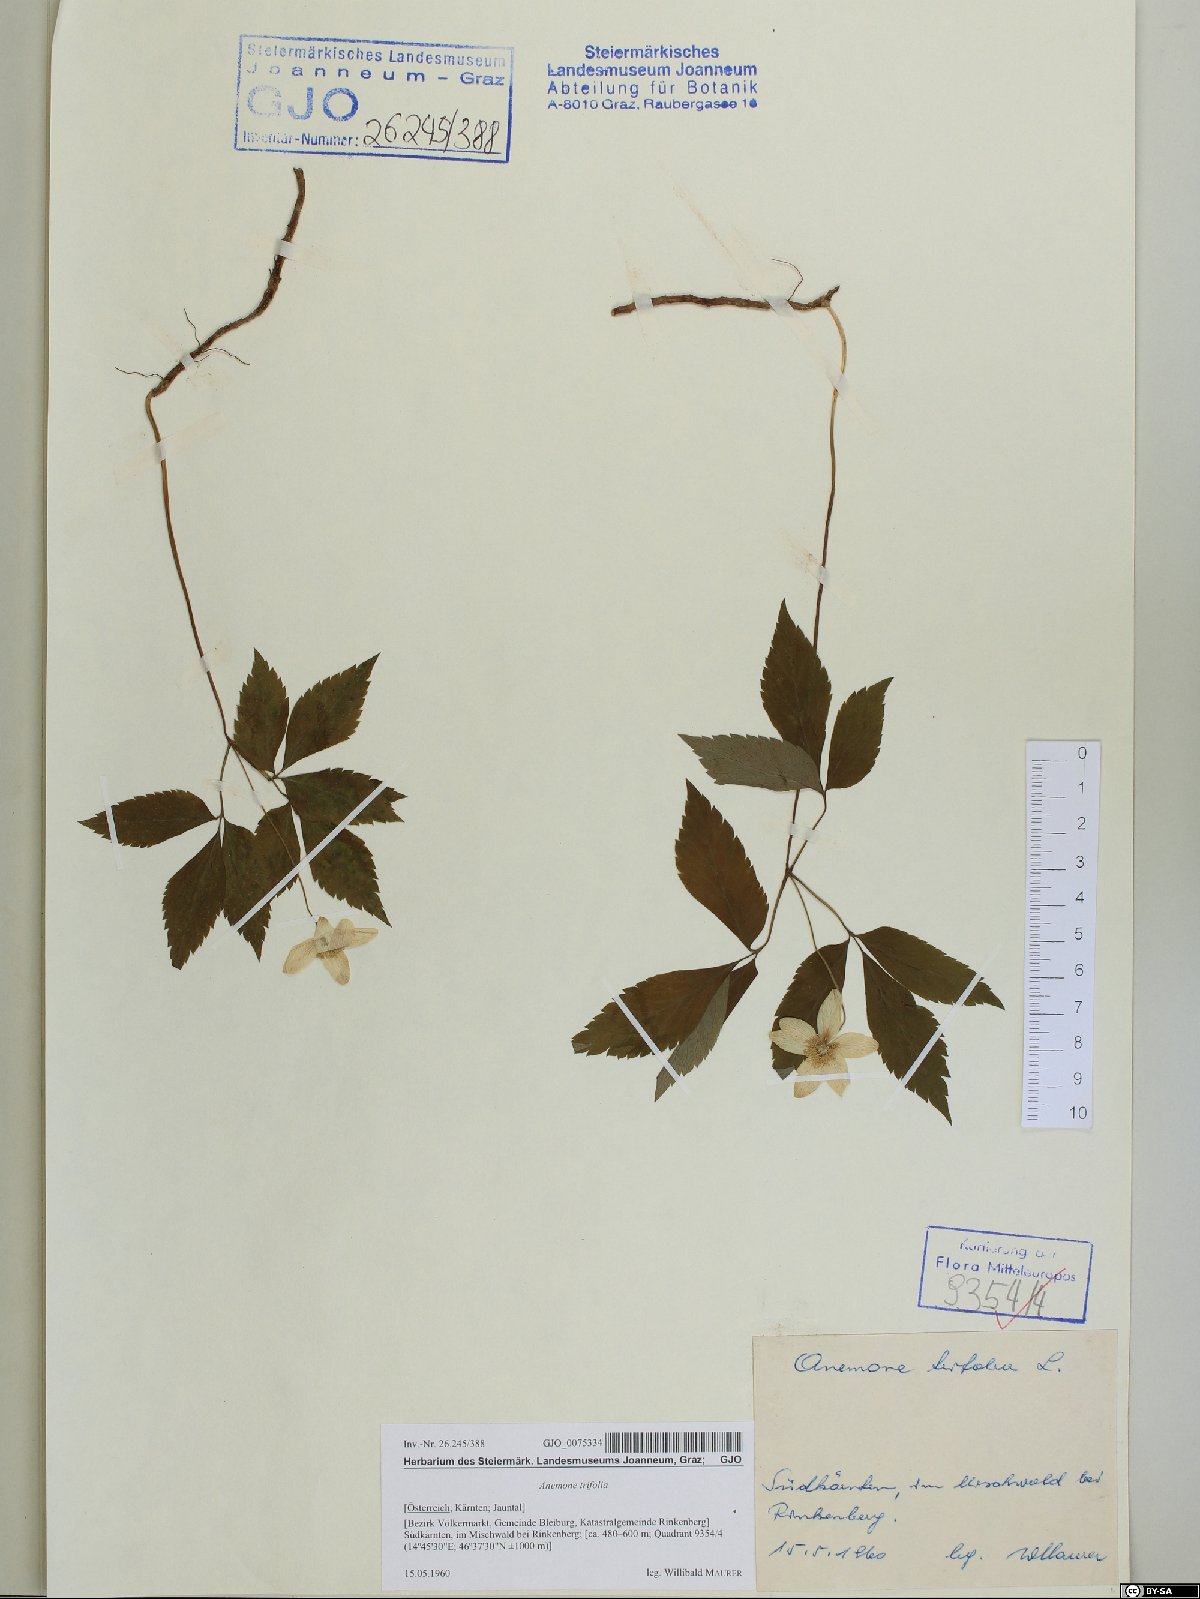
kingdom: Plantae
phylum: Tracheophyta
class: Magnoliopsida
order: Ranunculales
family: Ranunculaceae
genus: Anemone
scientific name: Anemone trifolia
